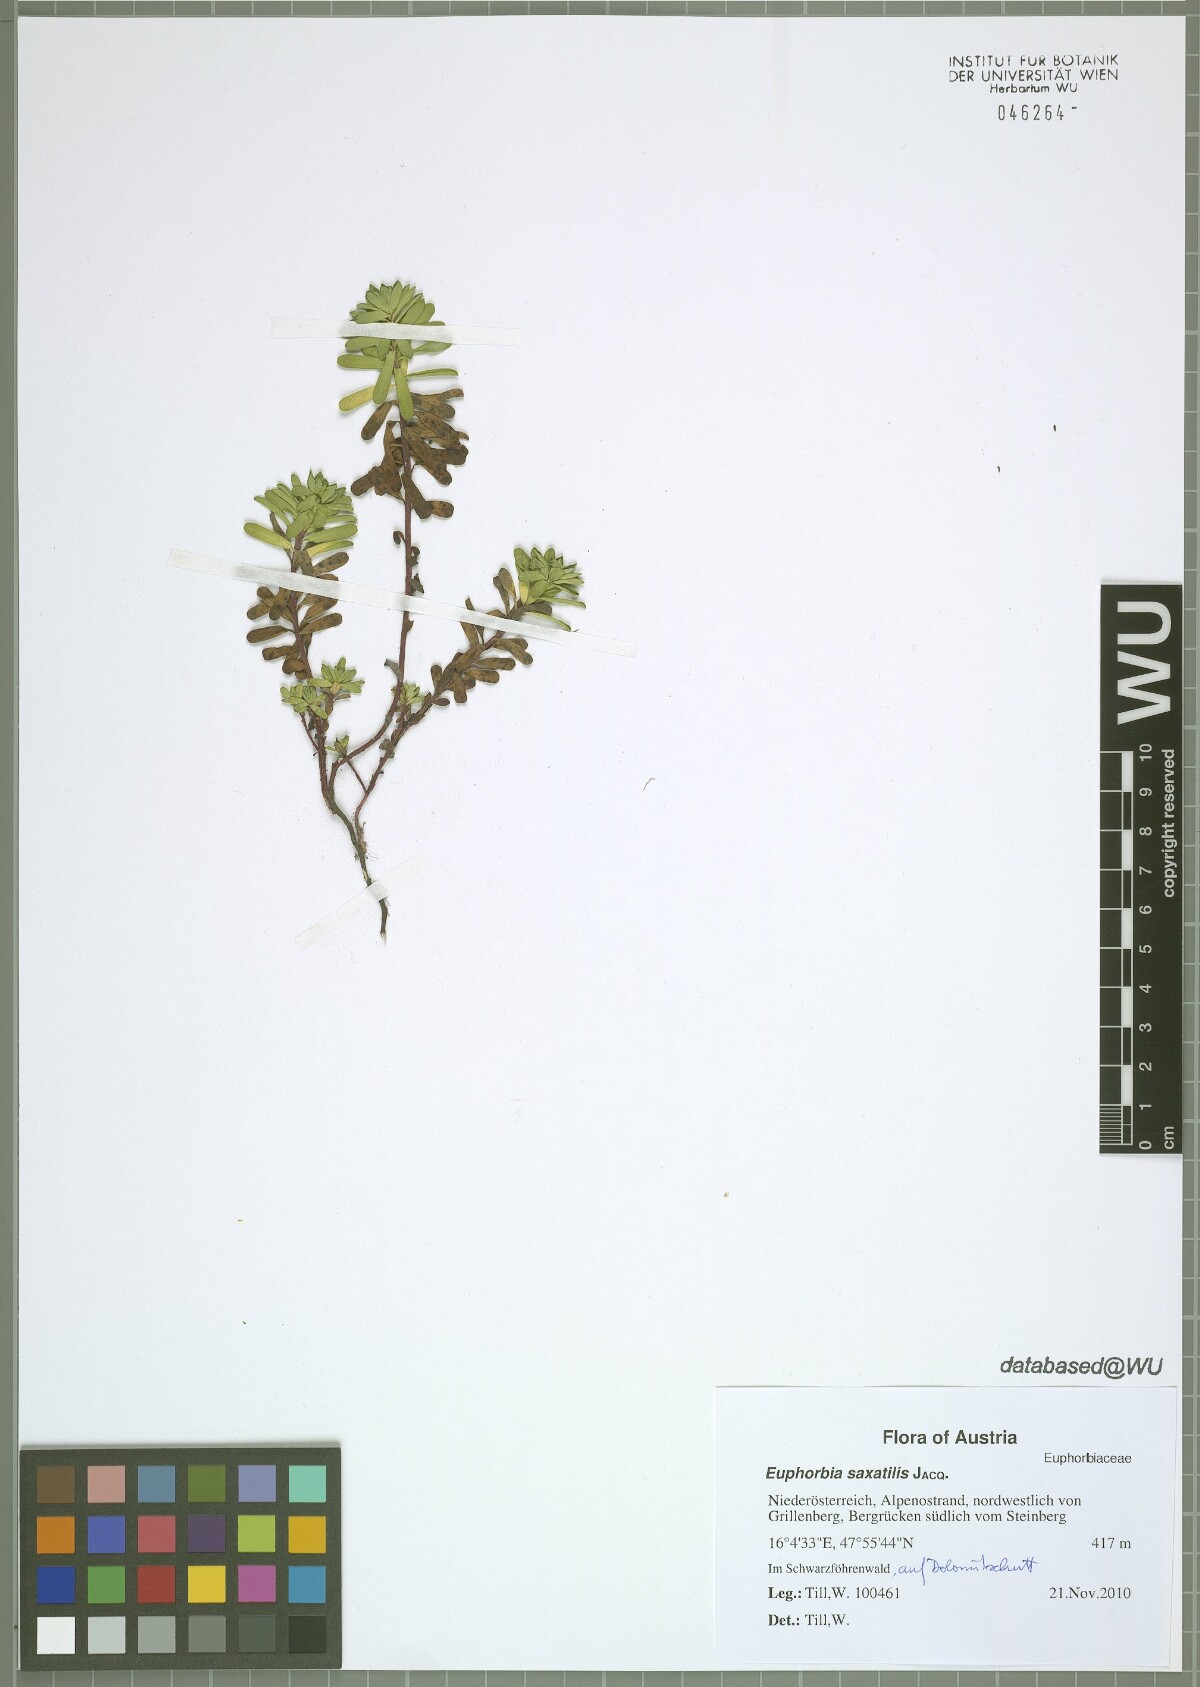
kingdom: Plantae
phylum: Tracheophyta
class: Magnoliopsida
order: Malpighiales
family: Euphorbiaceae
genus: Euphorbia
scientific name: Euphorbia saxatilis
